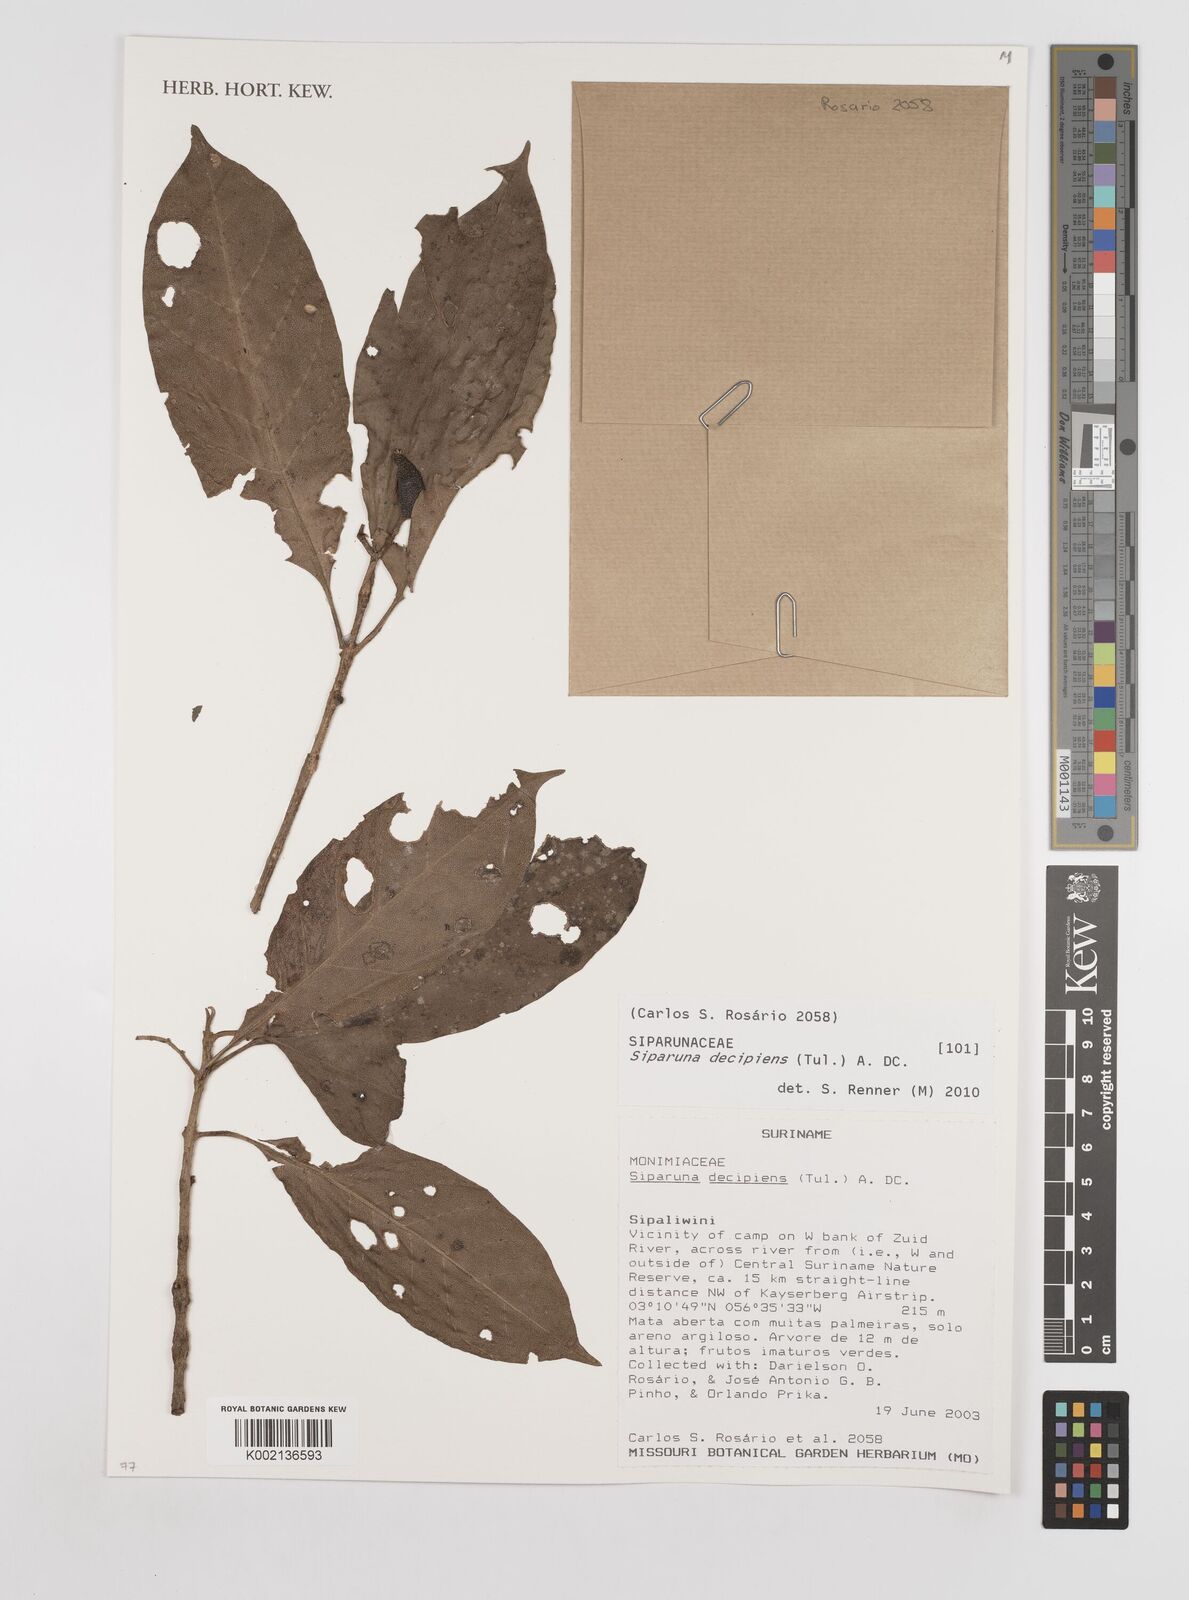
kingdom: Plantae
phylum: Tracheophyta
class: Magnoliopsida
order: Laurales
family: Siparunaceae
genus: Siparuna
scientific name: Siparuna decipiens
